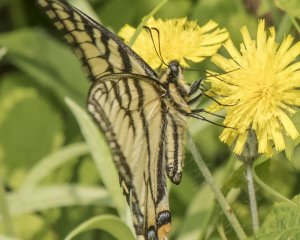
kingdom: Animalia
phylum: Arthropoda
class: Insecta
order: Lepidoptera
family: Papilionidae
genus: Pterourus
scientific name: Pterourus canadensis
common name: Canadian Tiger Swallowtail
